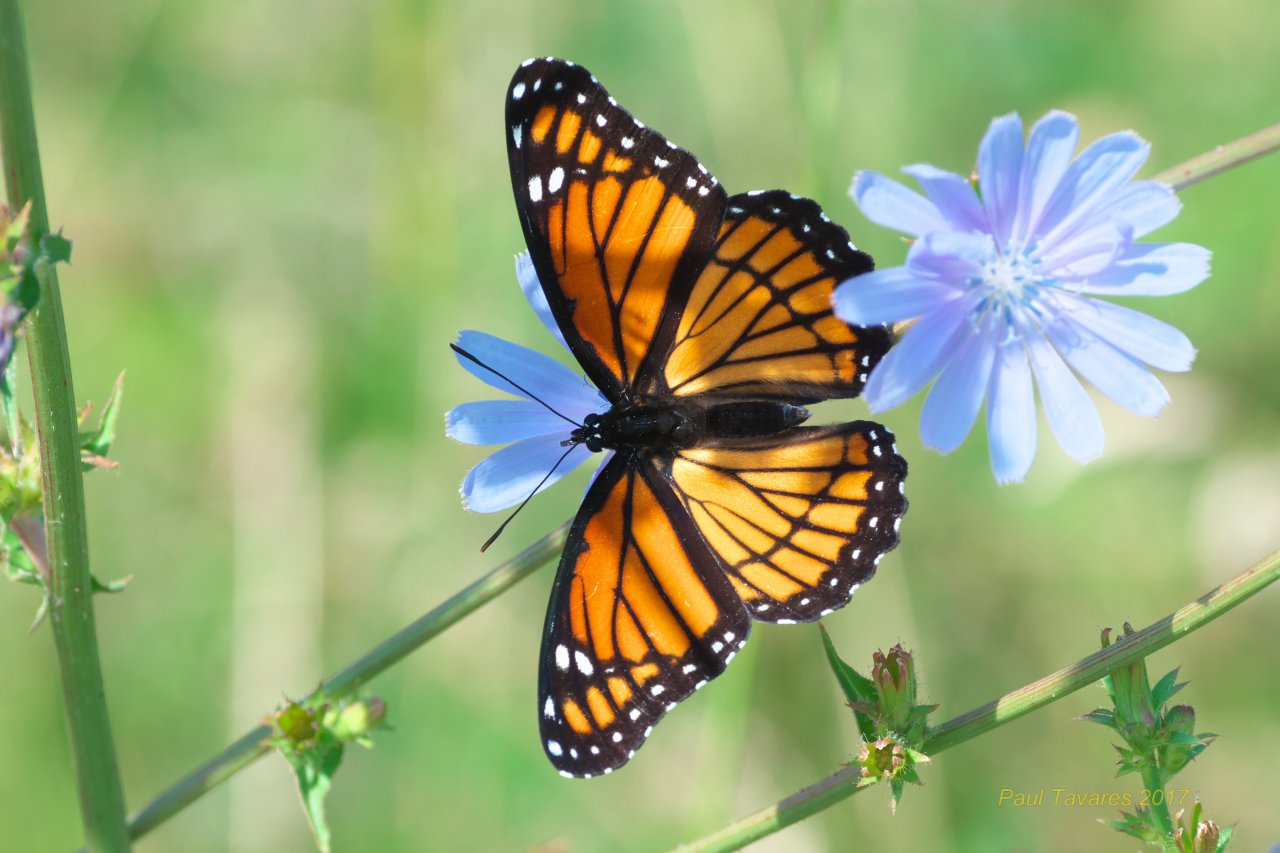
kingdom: Animalia
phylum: Arthropoda
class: Insecta
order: Lepidoptera
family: Nymphalidae
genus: Limenitis
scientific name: Limenitis archippus
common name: Viceroy
